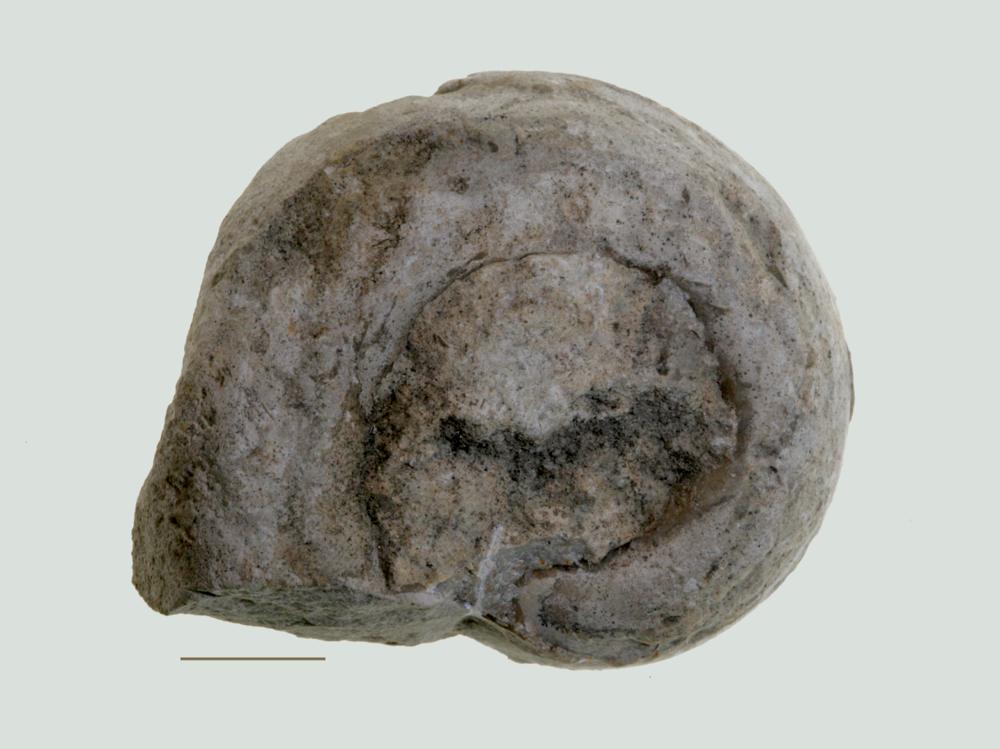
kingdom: Animalia
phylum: Mollusca
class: Gastropoda
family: Lesueurillidae
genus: Mestoronema
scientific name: Mestoronema Euomphalus marginalis
